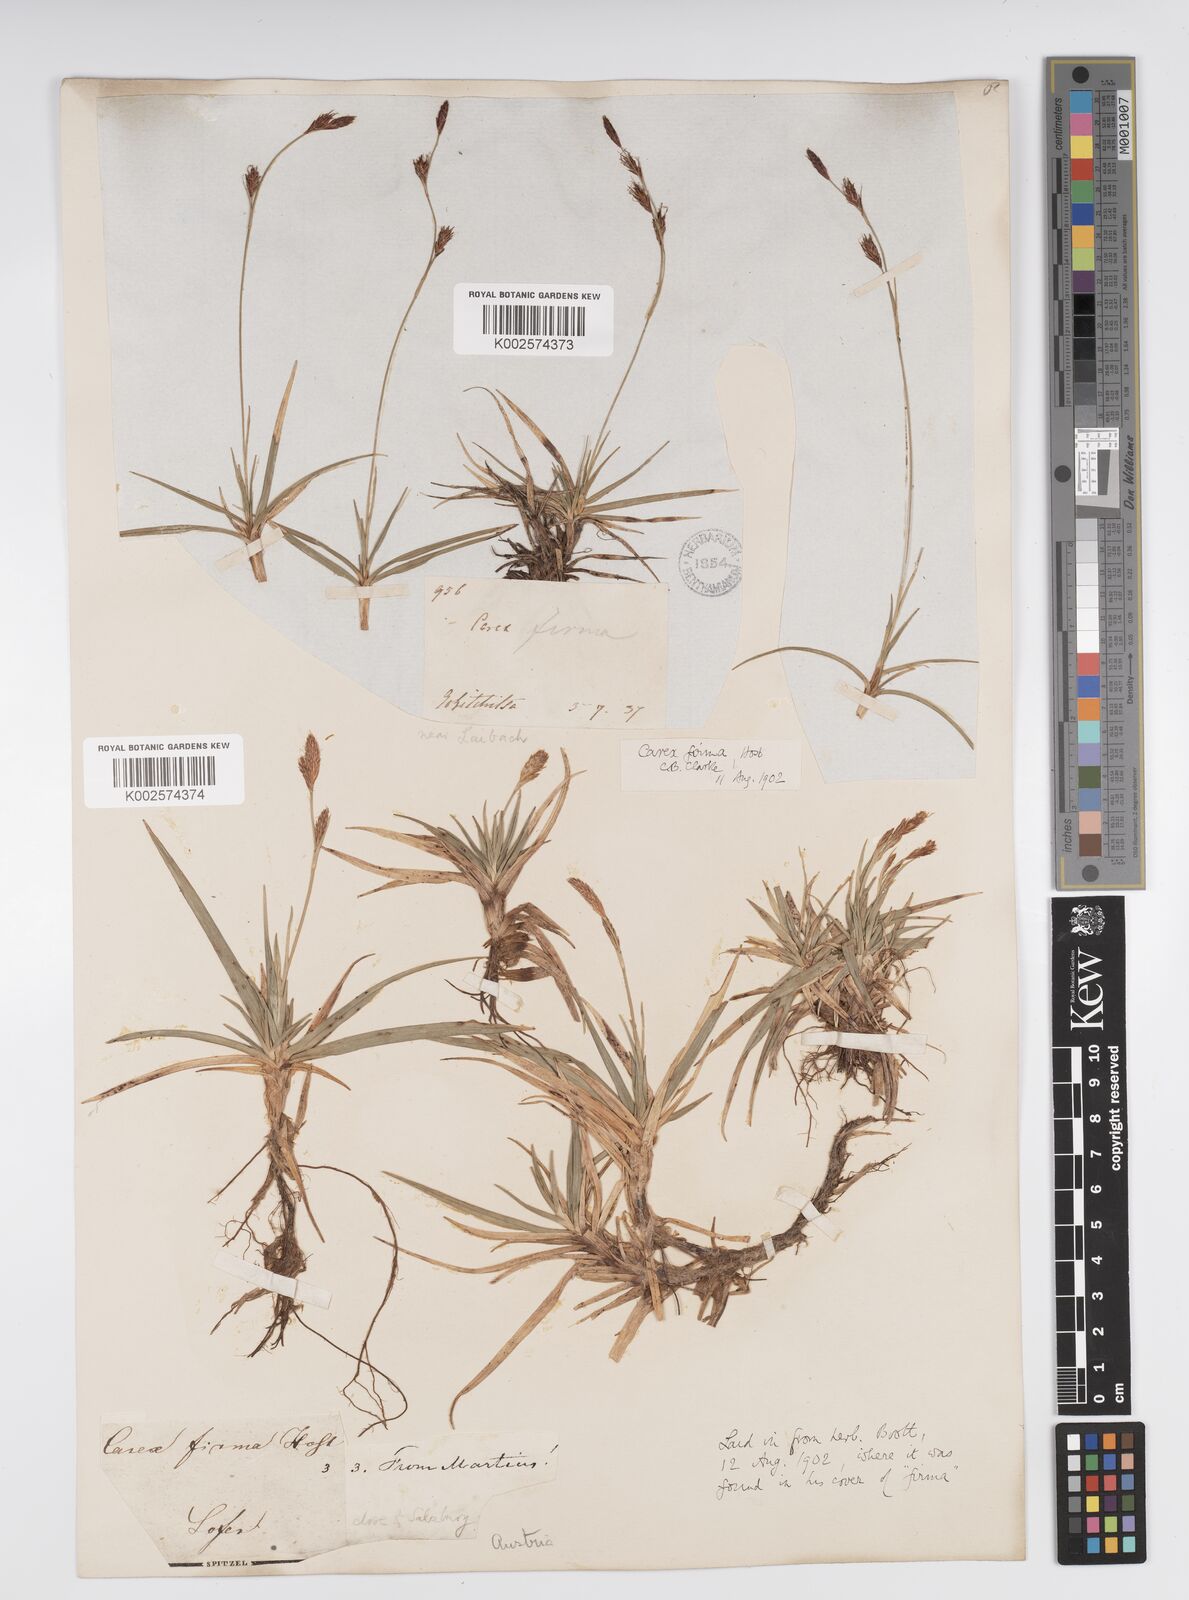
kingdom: Plantae
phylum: Tracheophyta
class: Liliopsida
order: Poales
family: Cyperaceae
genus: Carex
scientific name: Carex firma
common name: Dwarf pillow sedge
